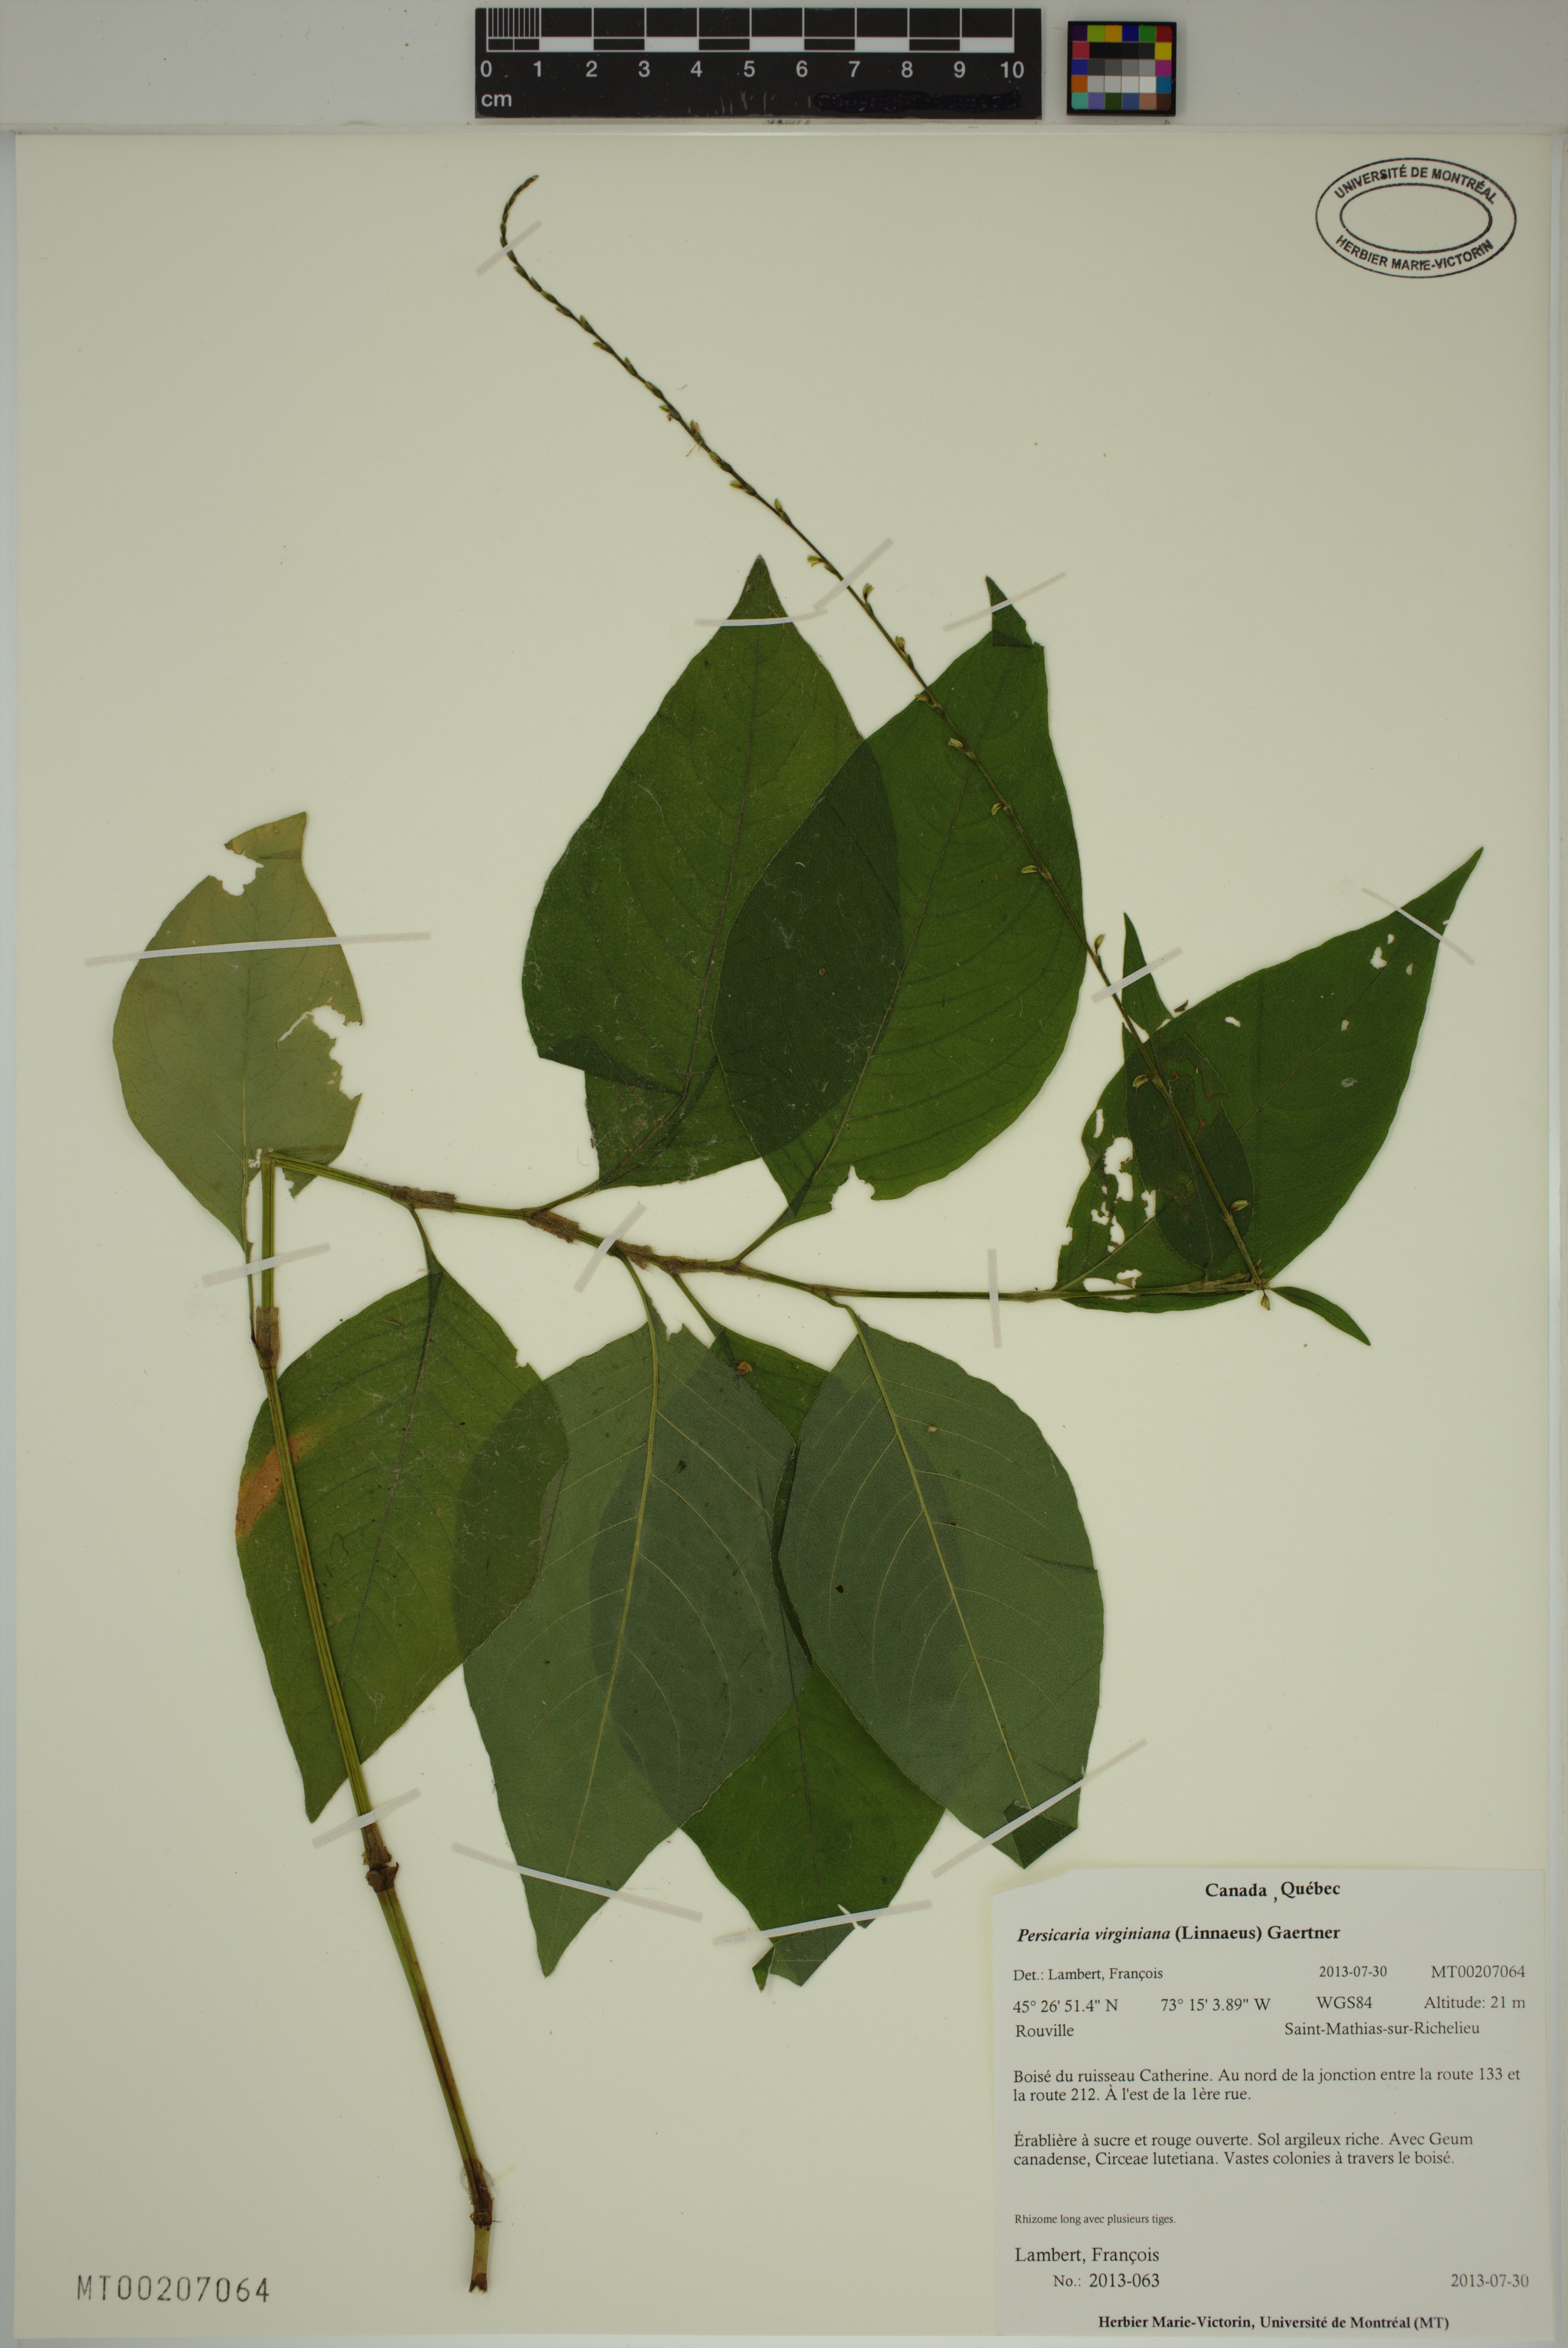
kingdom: Plantae
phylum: Tracheophyta
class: Magnoliopsida
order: Caryophyllales
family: Polygonaceae
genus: Persicaria
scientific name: Persicaria virginiana
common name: Jumpseed
